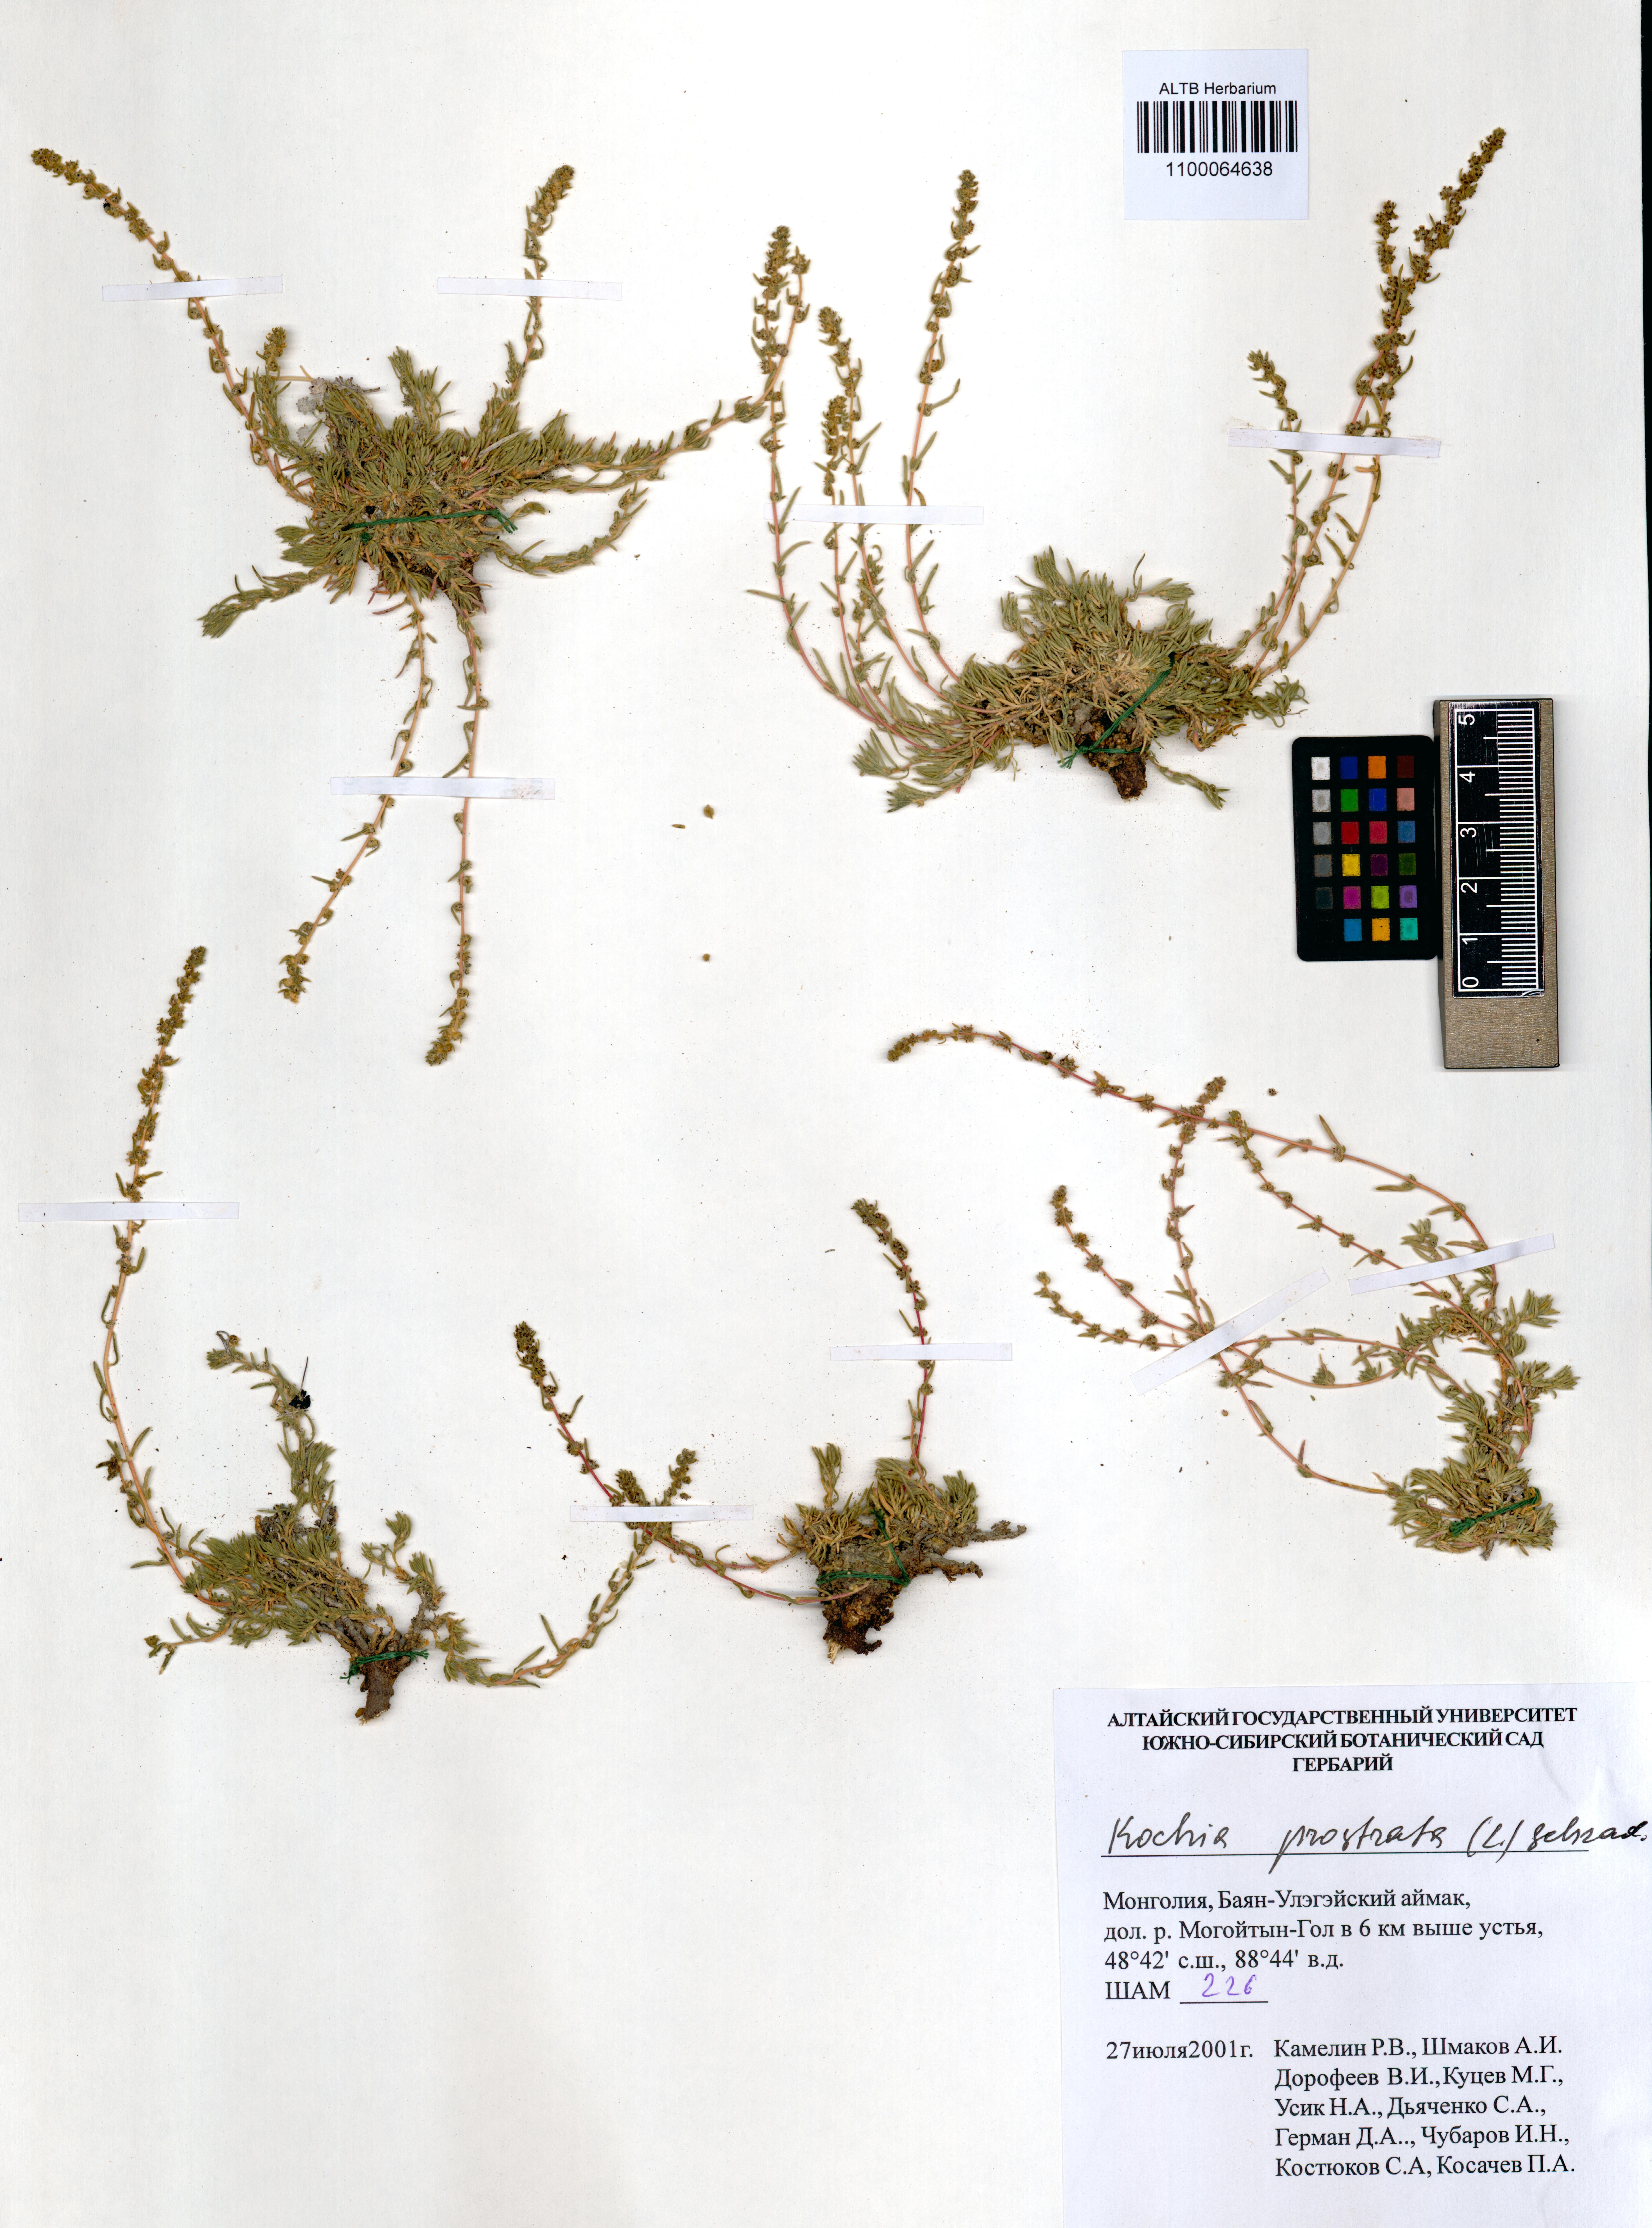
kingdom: Plantae
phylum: Tracheophyta
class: Magnoliopsida
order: Caryophyllales
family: Amaranthaceae
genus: Bassia
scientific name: Bassia prostrata
